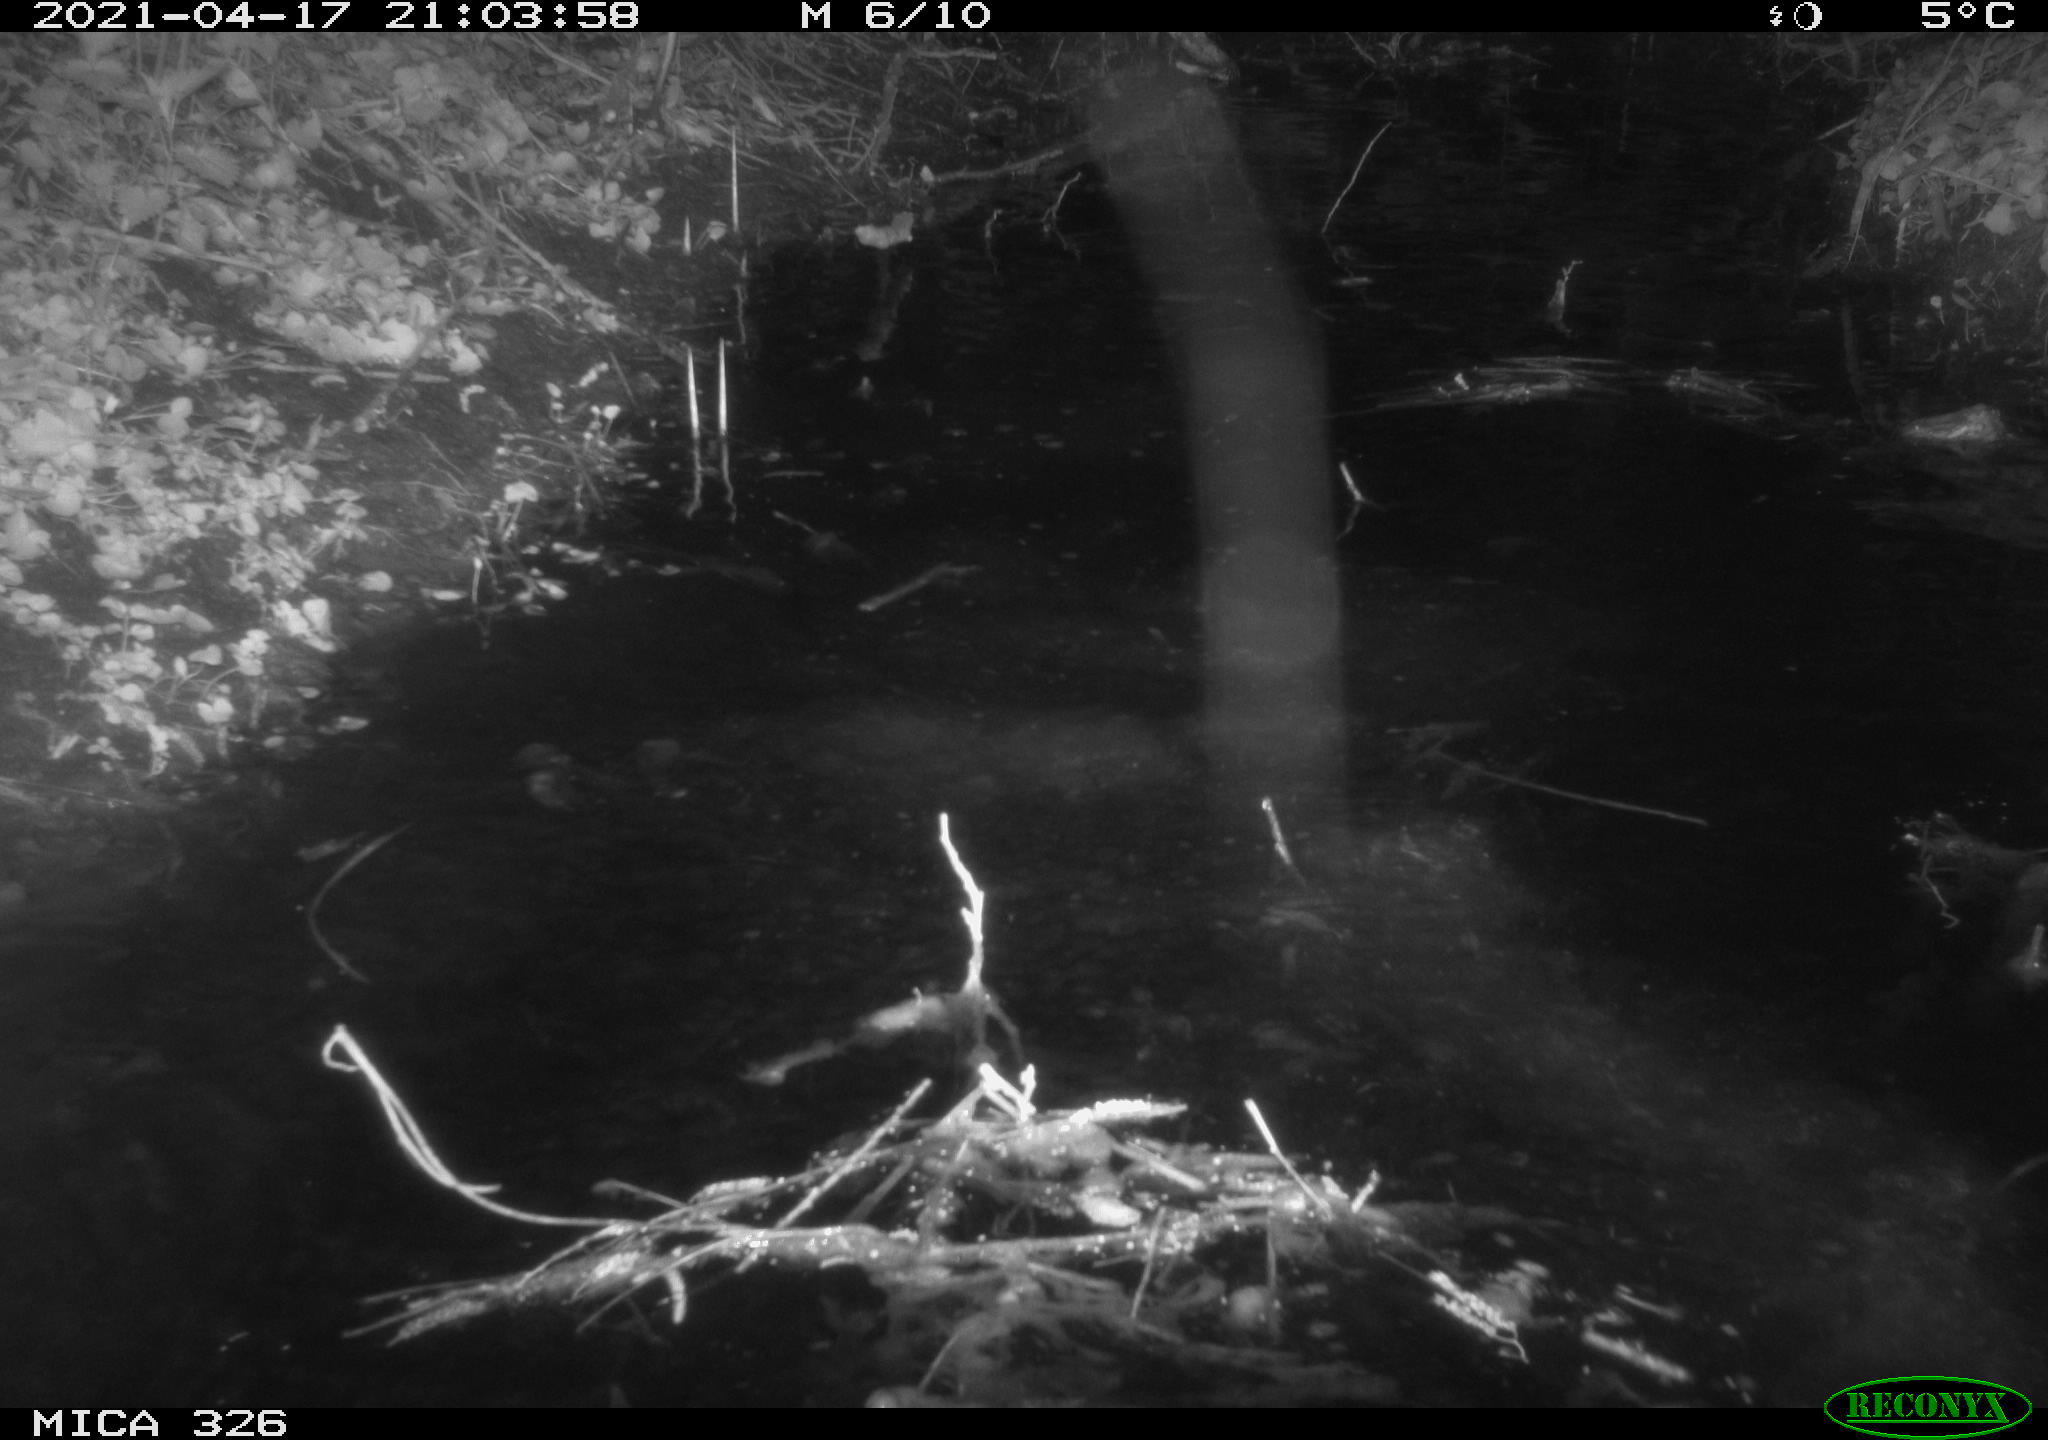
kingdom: Animalia
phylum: Chordata
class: Mammalia
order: Rodentia
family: Myocastoridae
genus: Myocastor
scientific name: Myocastor coypus
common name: Coypu
